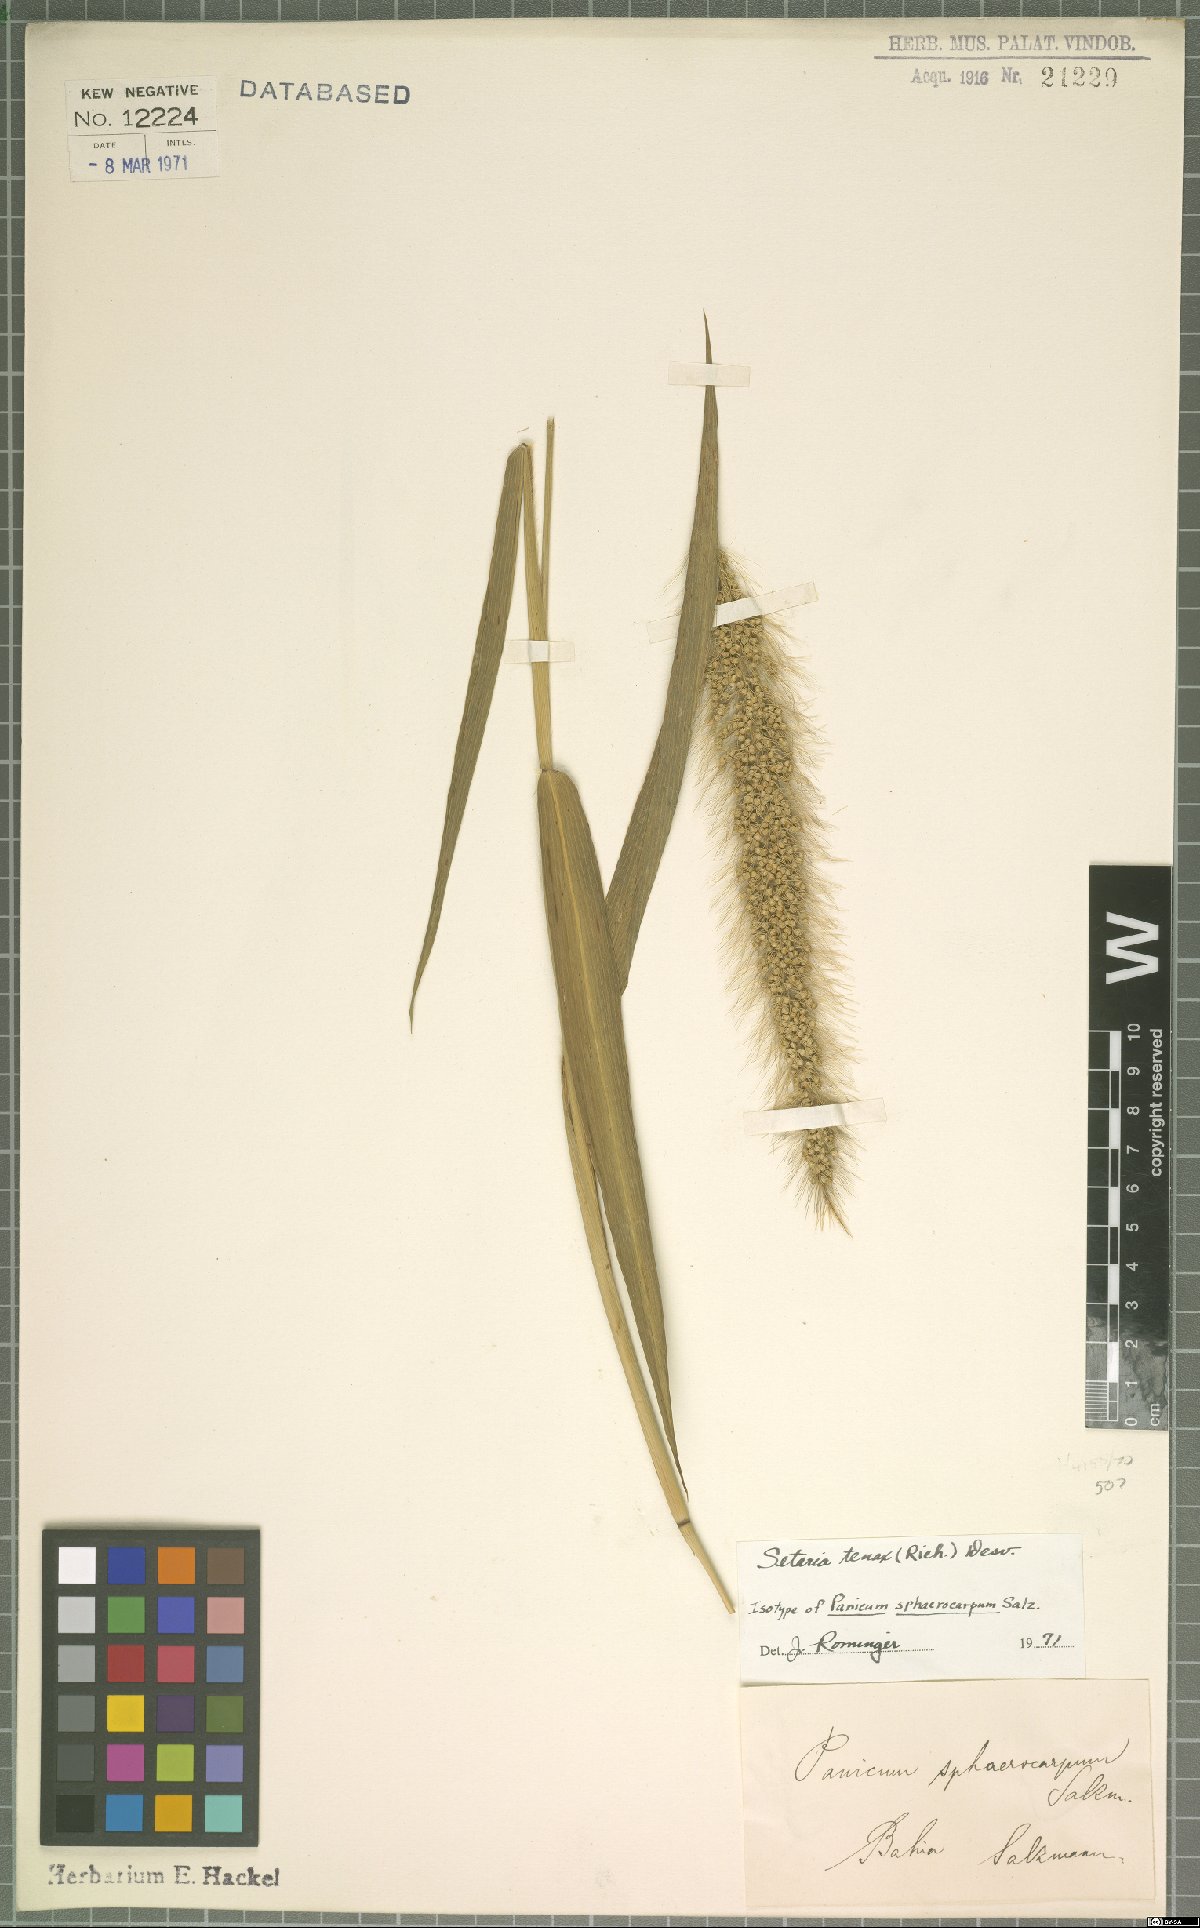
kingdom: Plantae
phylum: Tracheophyta
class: Liliopsida
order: Poales
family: Poaceae
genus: Setaria
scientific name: Setaria tenax
